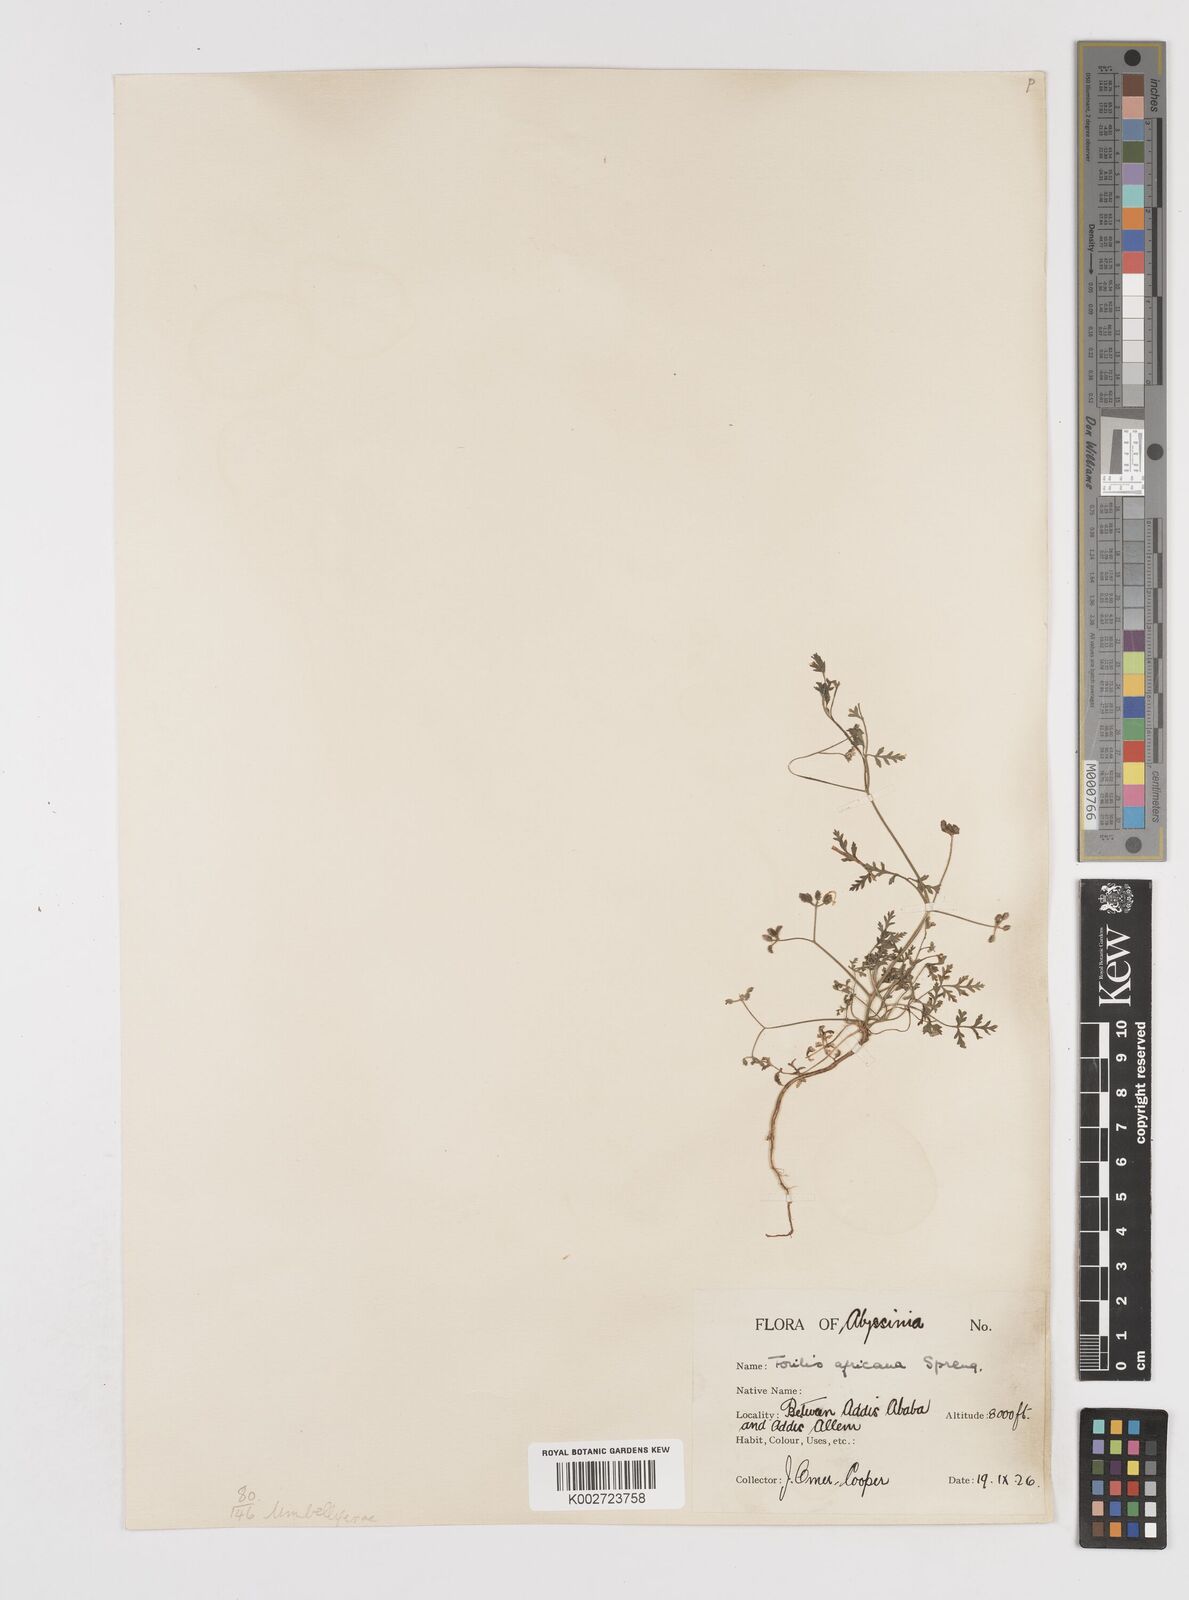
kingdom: Plantae
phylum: Tracheophyta
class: Magnoliopsida
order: Apiales
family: Apiaceae
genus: Torilis
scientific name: Torilis arvensis
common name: Spreading hedge-parsley
